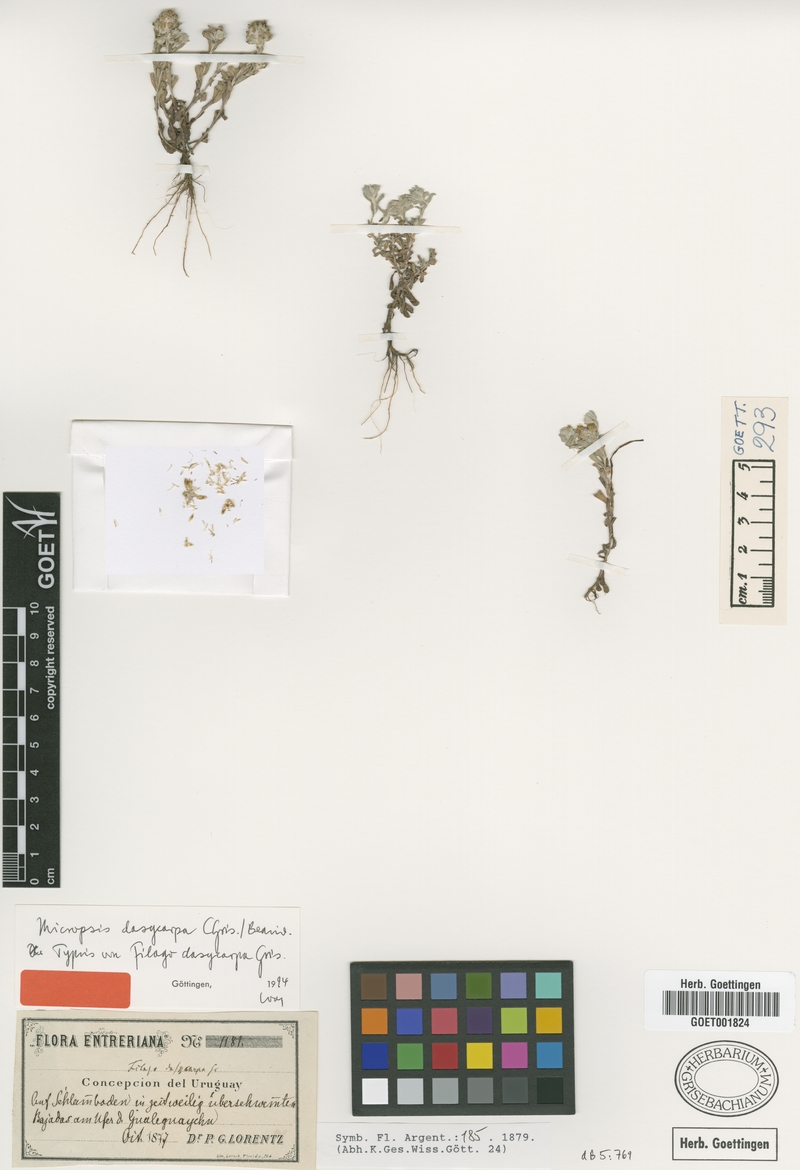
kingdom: Plantae
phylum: Tracheophyta
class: Magnoliopsida
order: Asterales
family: Asteraceae
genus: Micropsis
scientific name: Micropsis dasycarpa
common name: Bighead straitjackets
